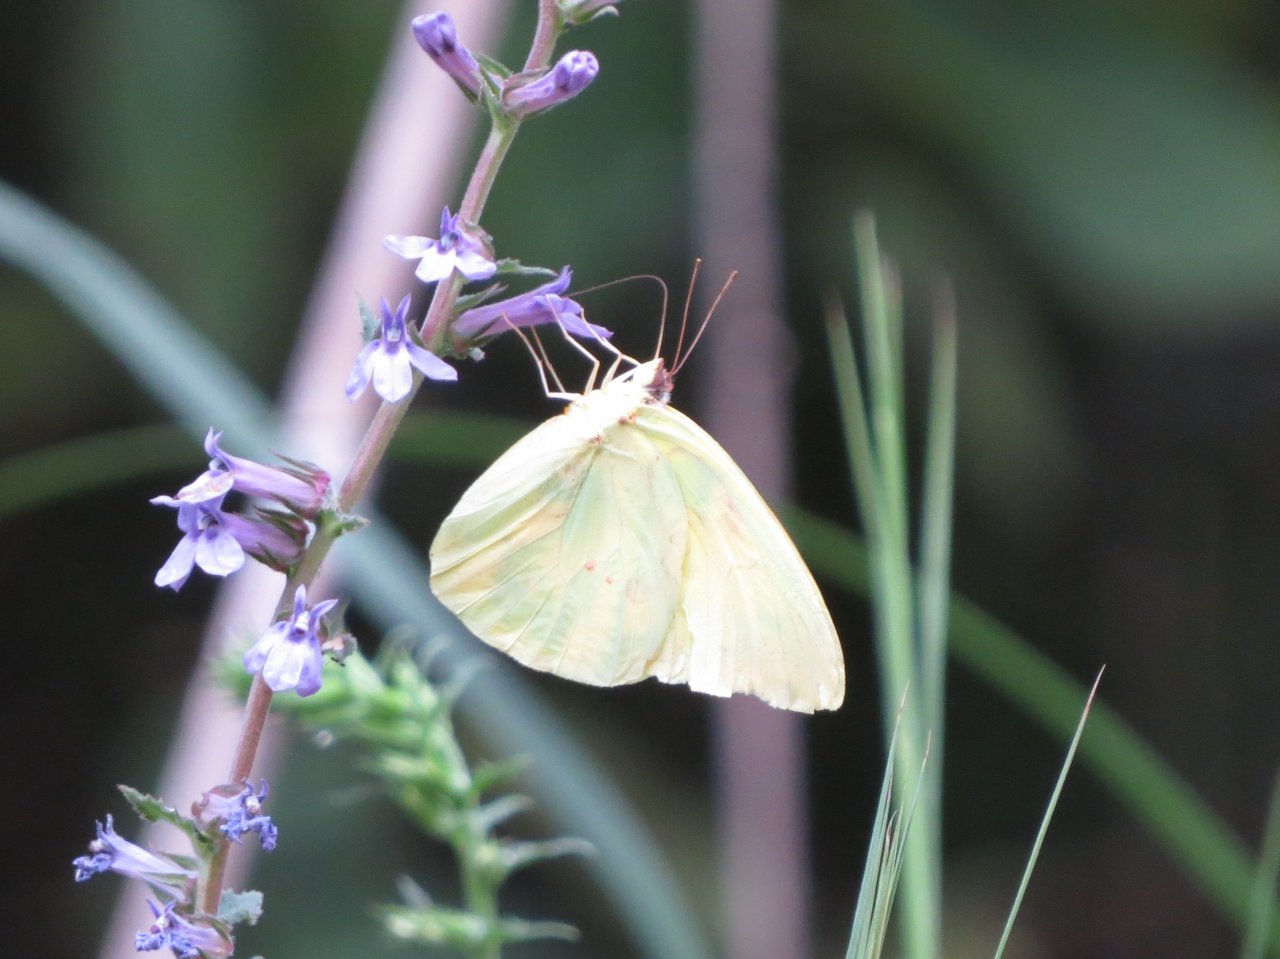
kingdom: Animalia
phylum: Arthropoda
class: Insecta
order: Lepidoptera
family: Pieridae
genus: Phoebis
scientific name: Phoebis sennae
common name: Cloudless Sulphur
